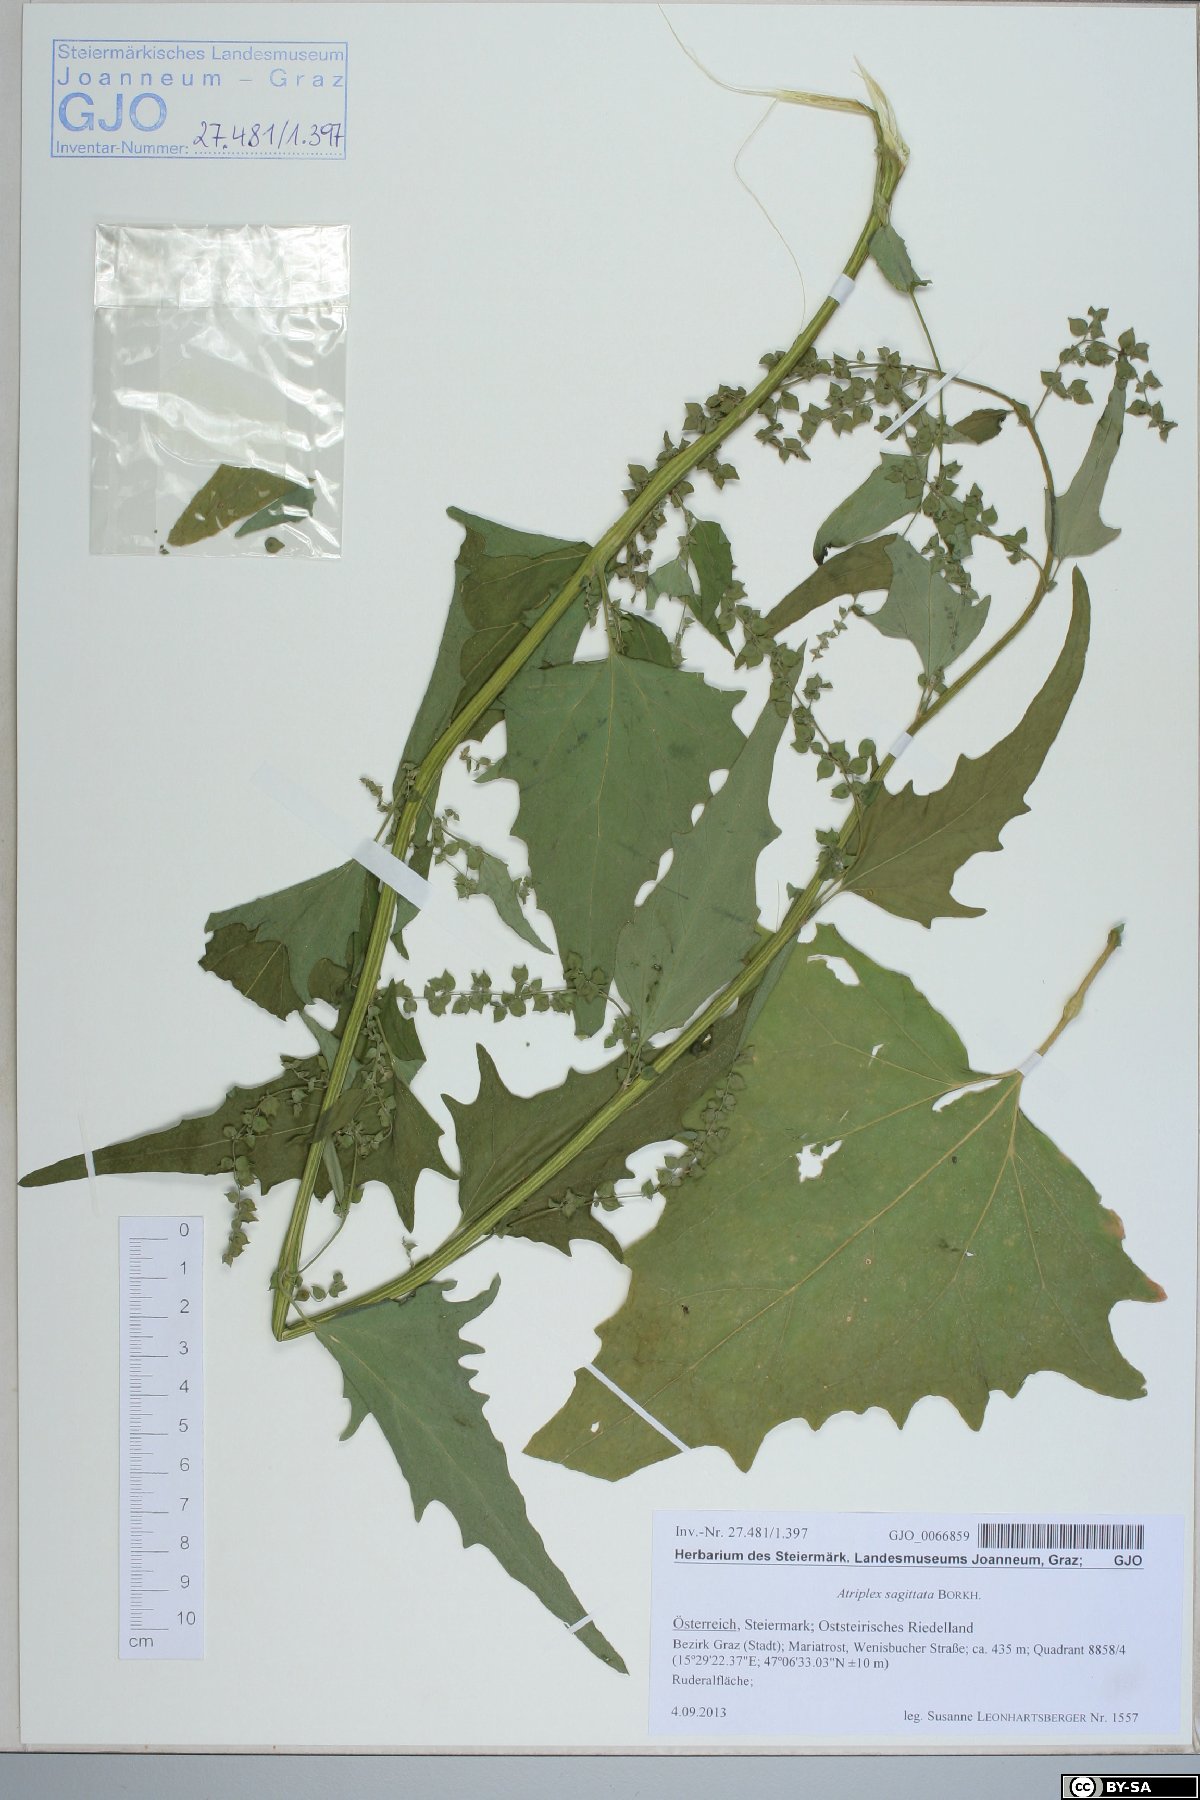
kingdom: Plantae
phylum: Tracheophyta
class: Magnoliopsida
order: Caryophyllales
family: Amaranthaceae
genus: Atriplex
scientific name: Atriplex sagittata
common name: Purple orache
